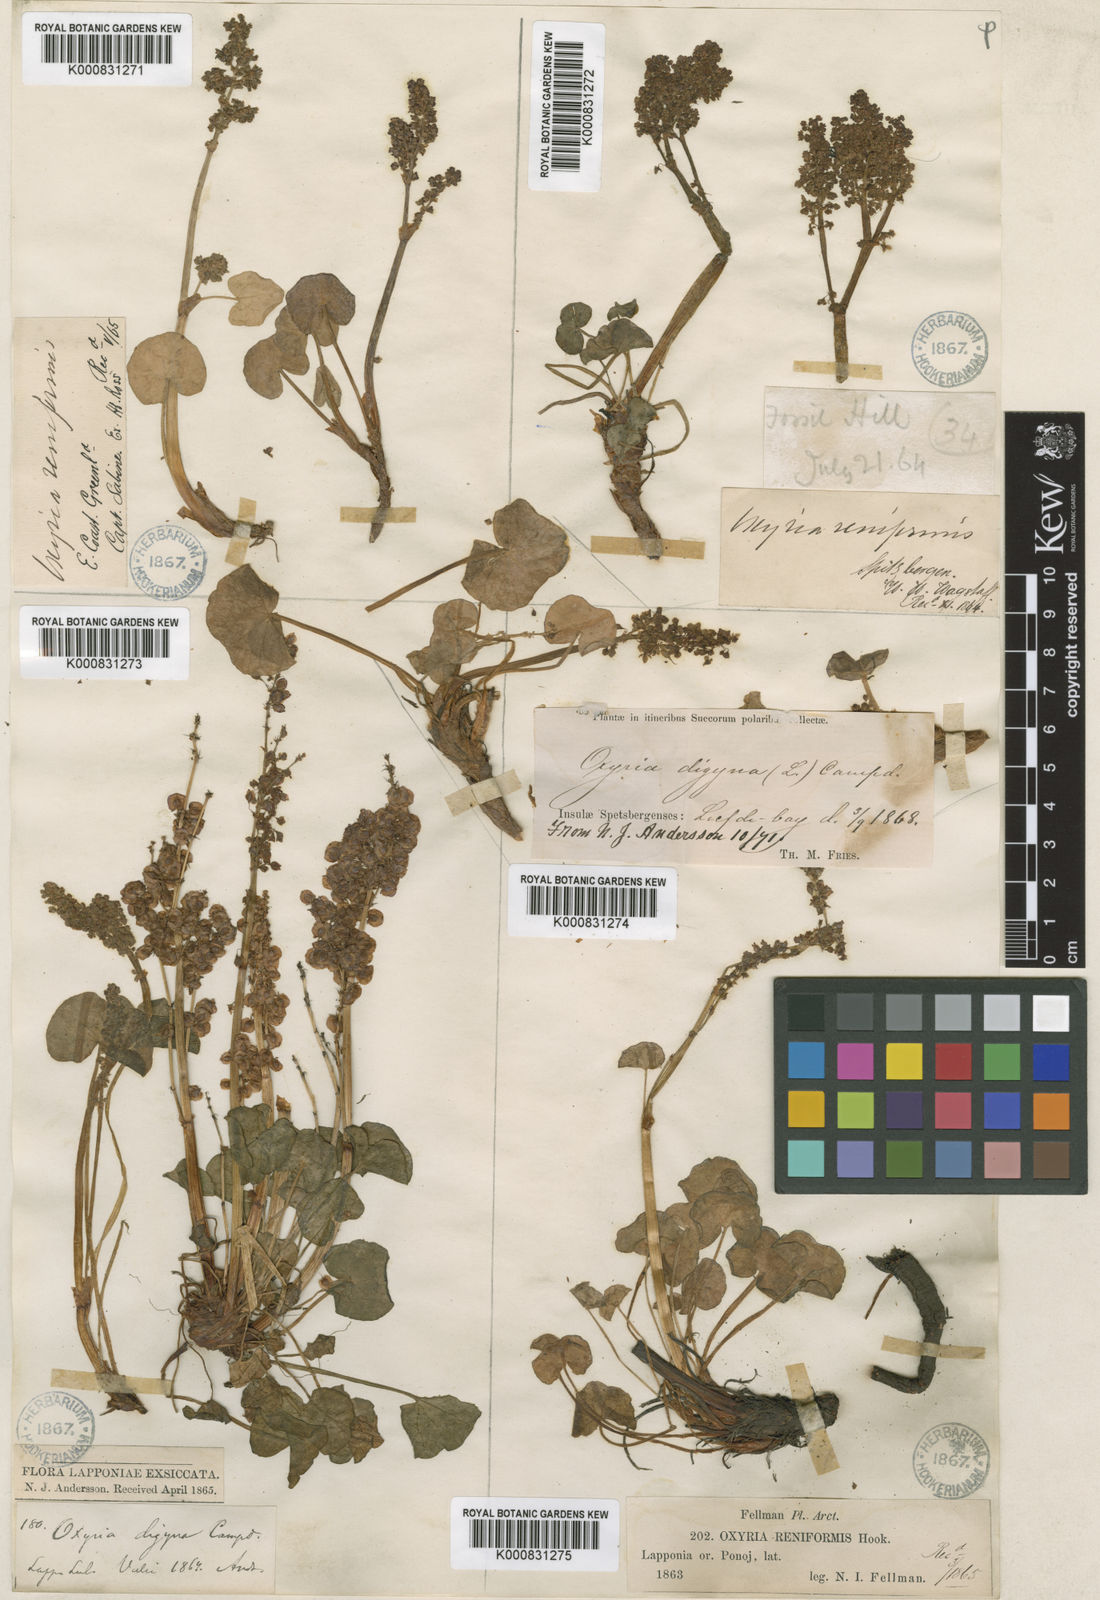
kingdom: Plantae
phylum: Tracheophyta
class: Magnoliopsida
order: Caryophyllales
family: Polygonaceae
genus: Oxyria
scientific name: Oxyria digyna
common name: Alpine mountain-sorrel
